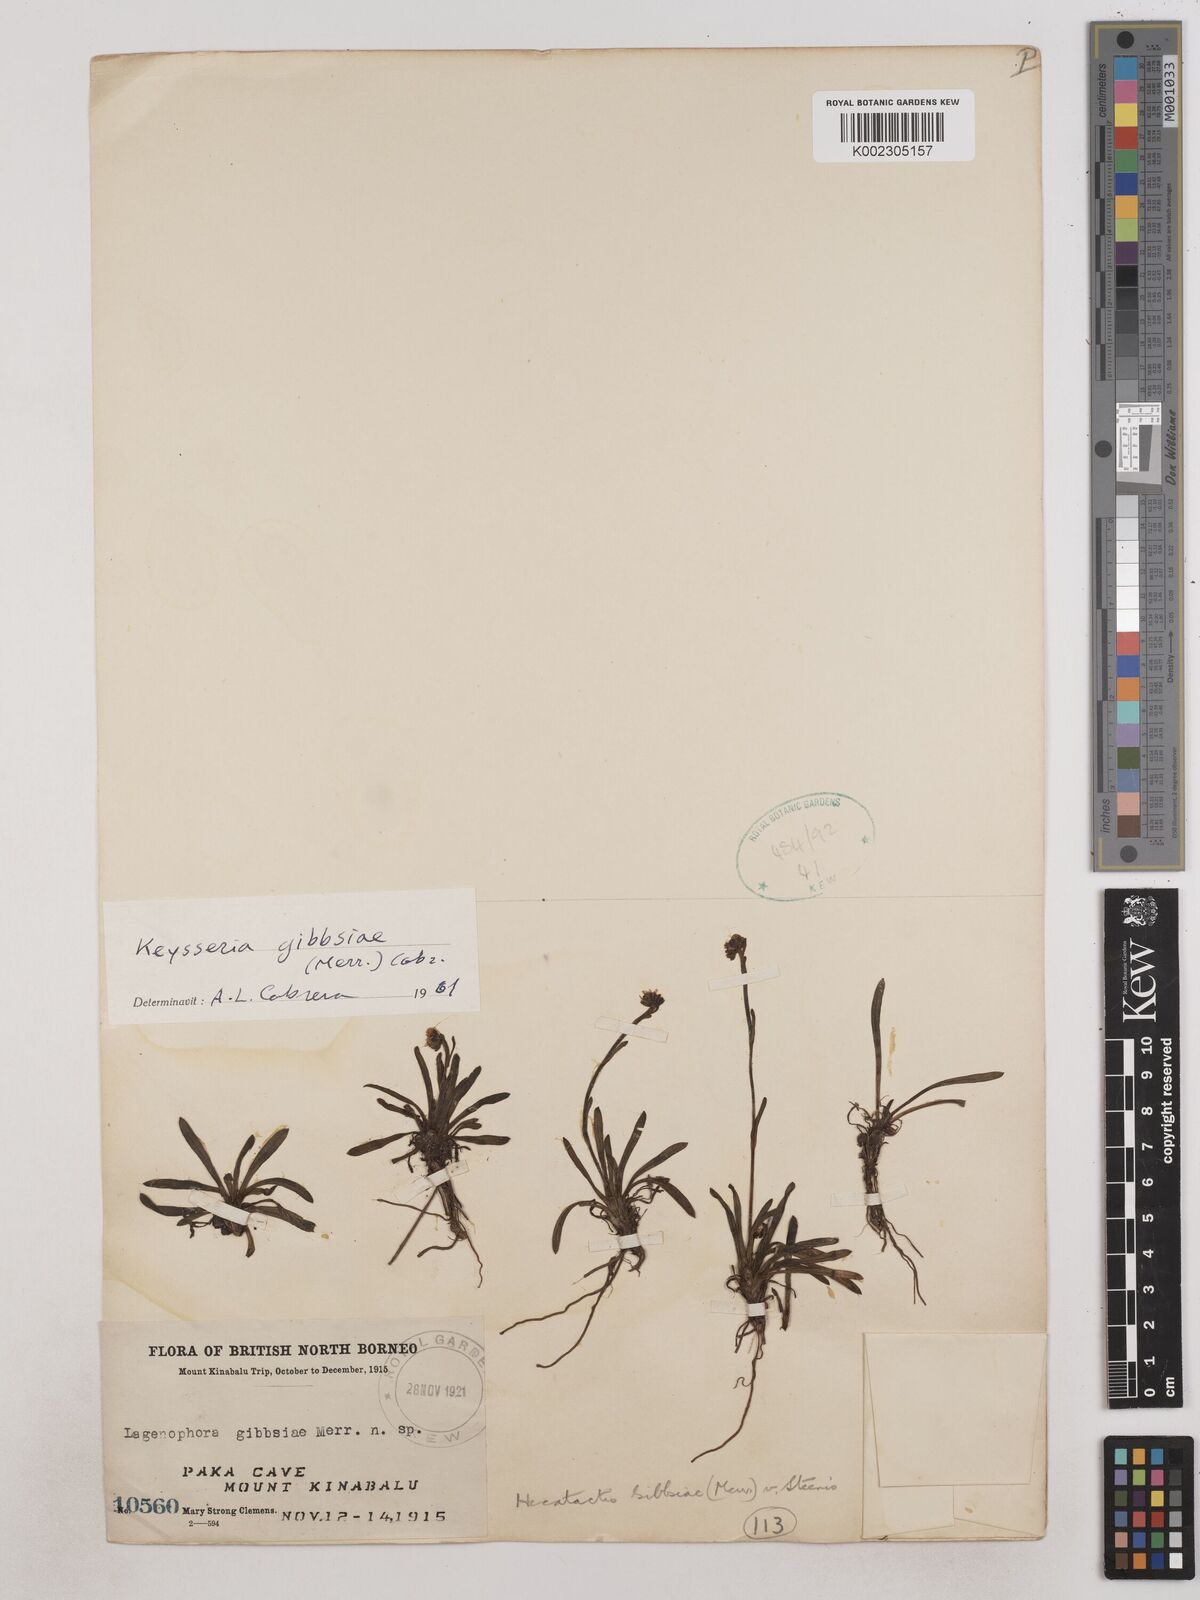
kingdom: Plantae
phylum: Tracheophyta
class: Magnoliopsida
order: Asterales
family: Asteraceae
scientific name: Asteraceae
